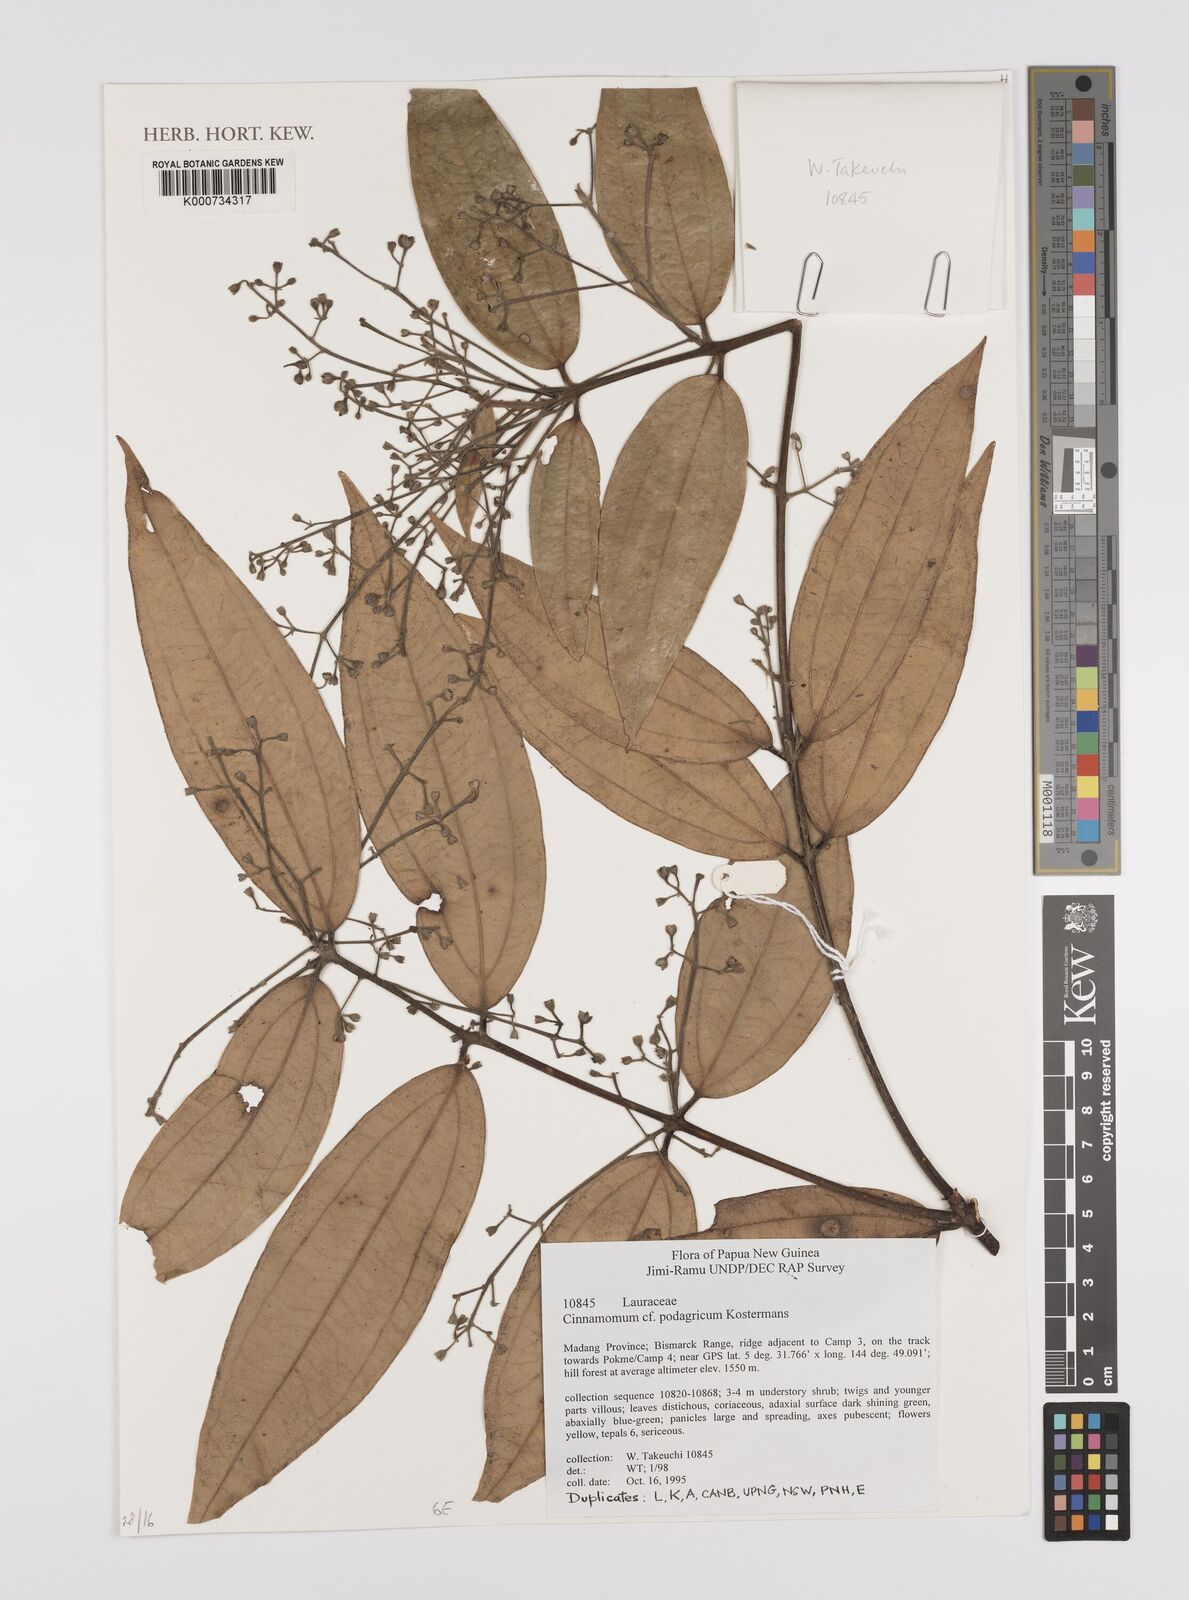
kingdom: Plantae
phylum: Tracheophyta
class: Magnoliopsida
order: Laurales
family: Lauraceae
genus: Cinnamomum
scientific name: Cinnamomum podagricum
